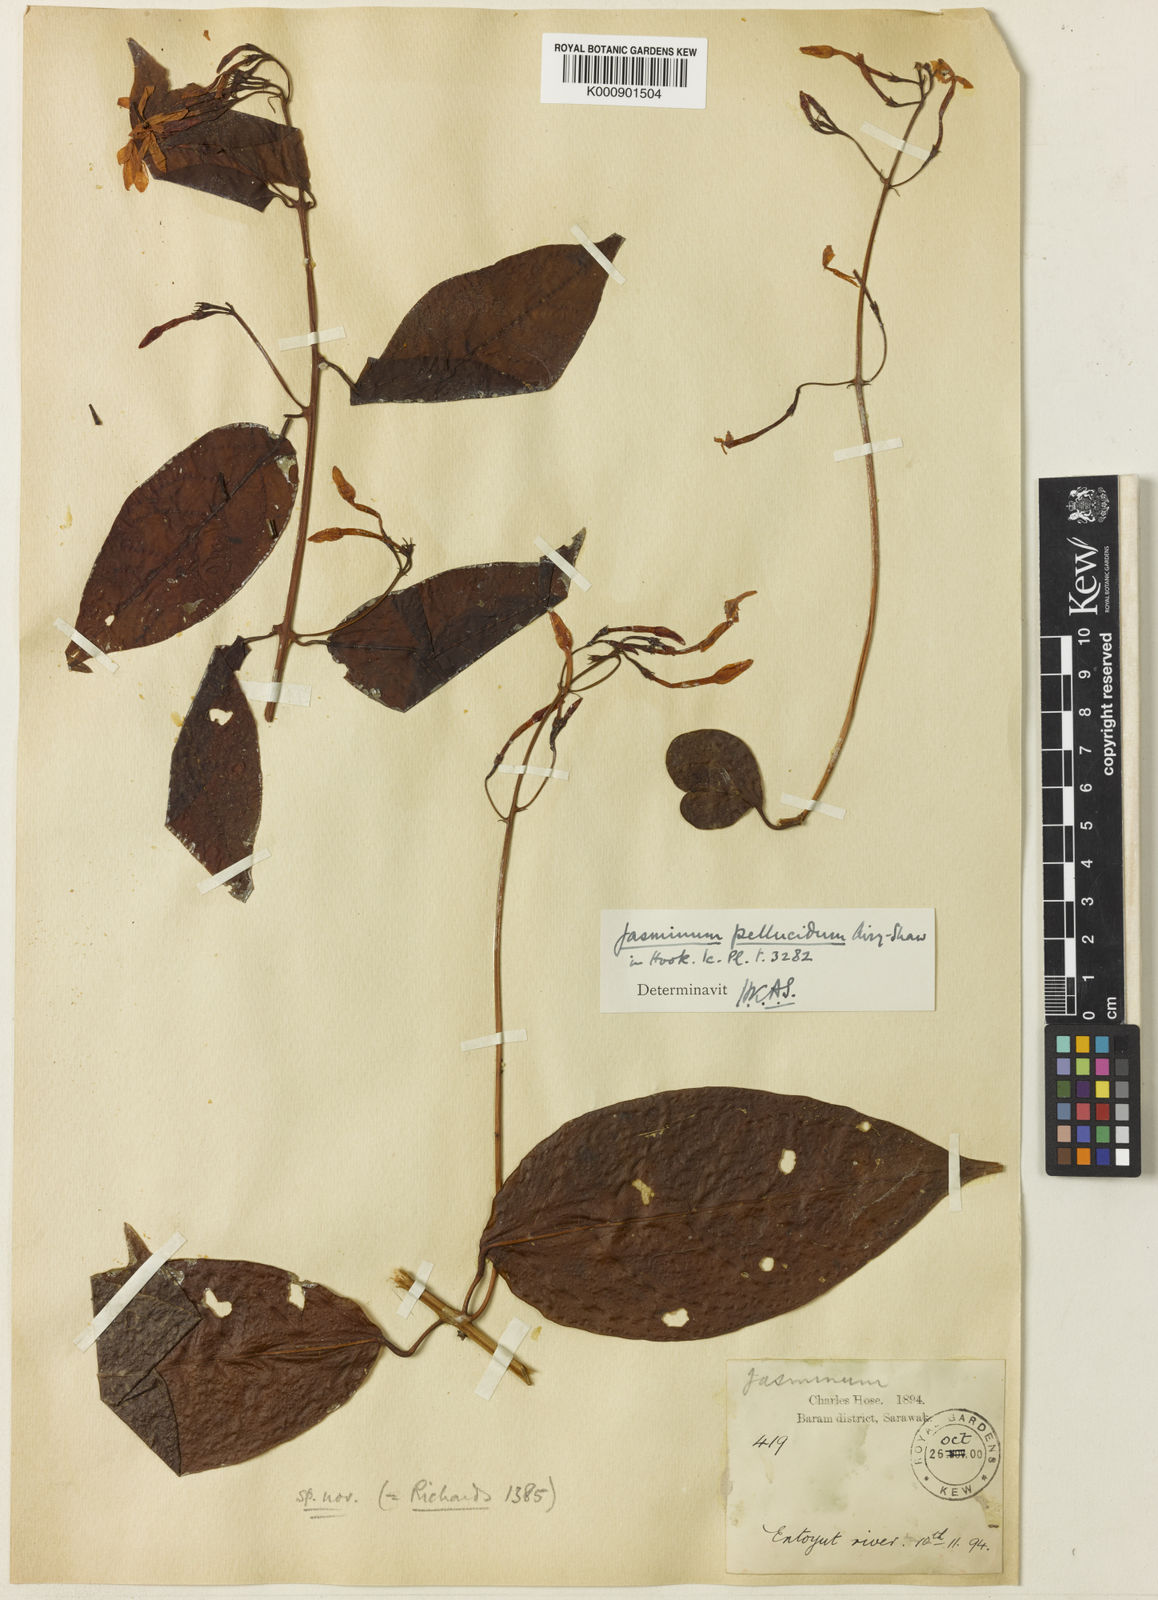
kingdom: Plantae
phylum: Tracheophyta
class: Magnoliopsida
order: Lamiales
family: Oleaceae
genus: Jasminum
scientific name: Jasminum pellucidum
